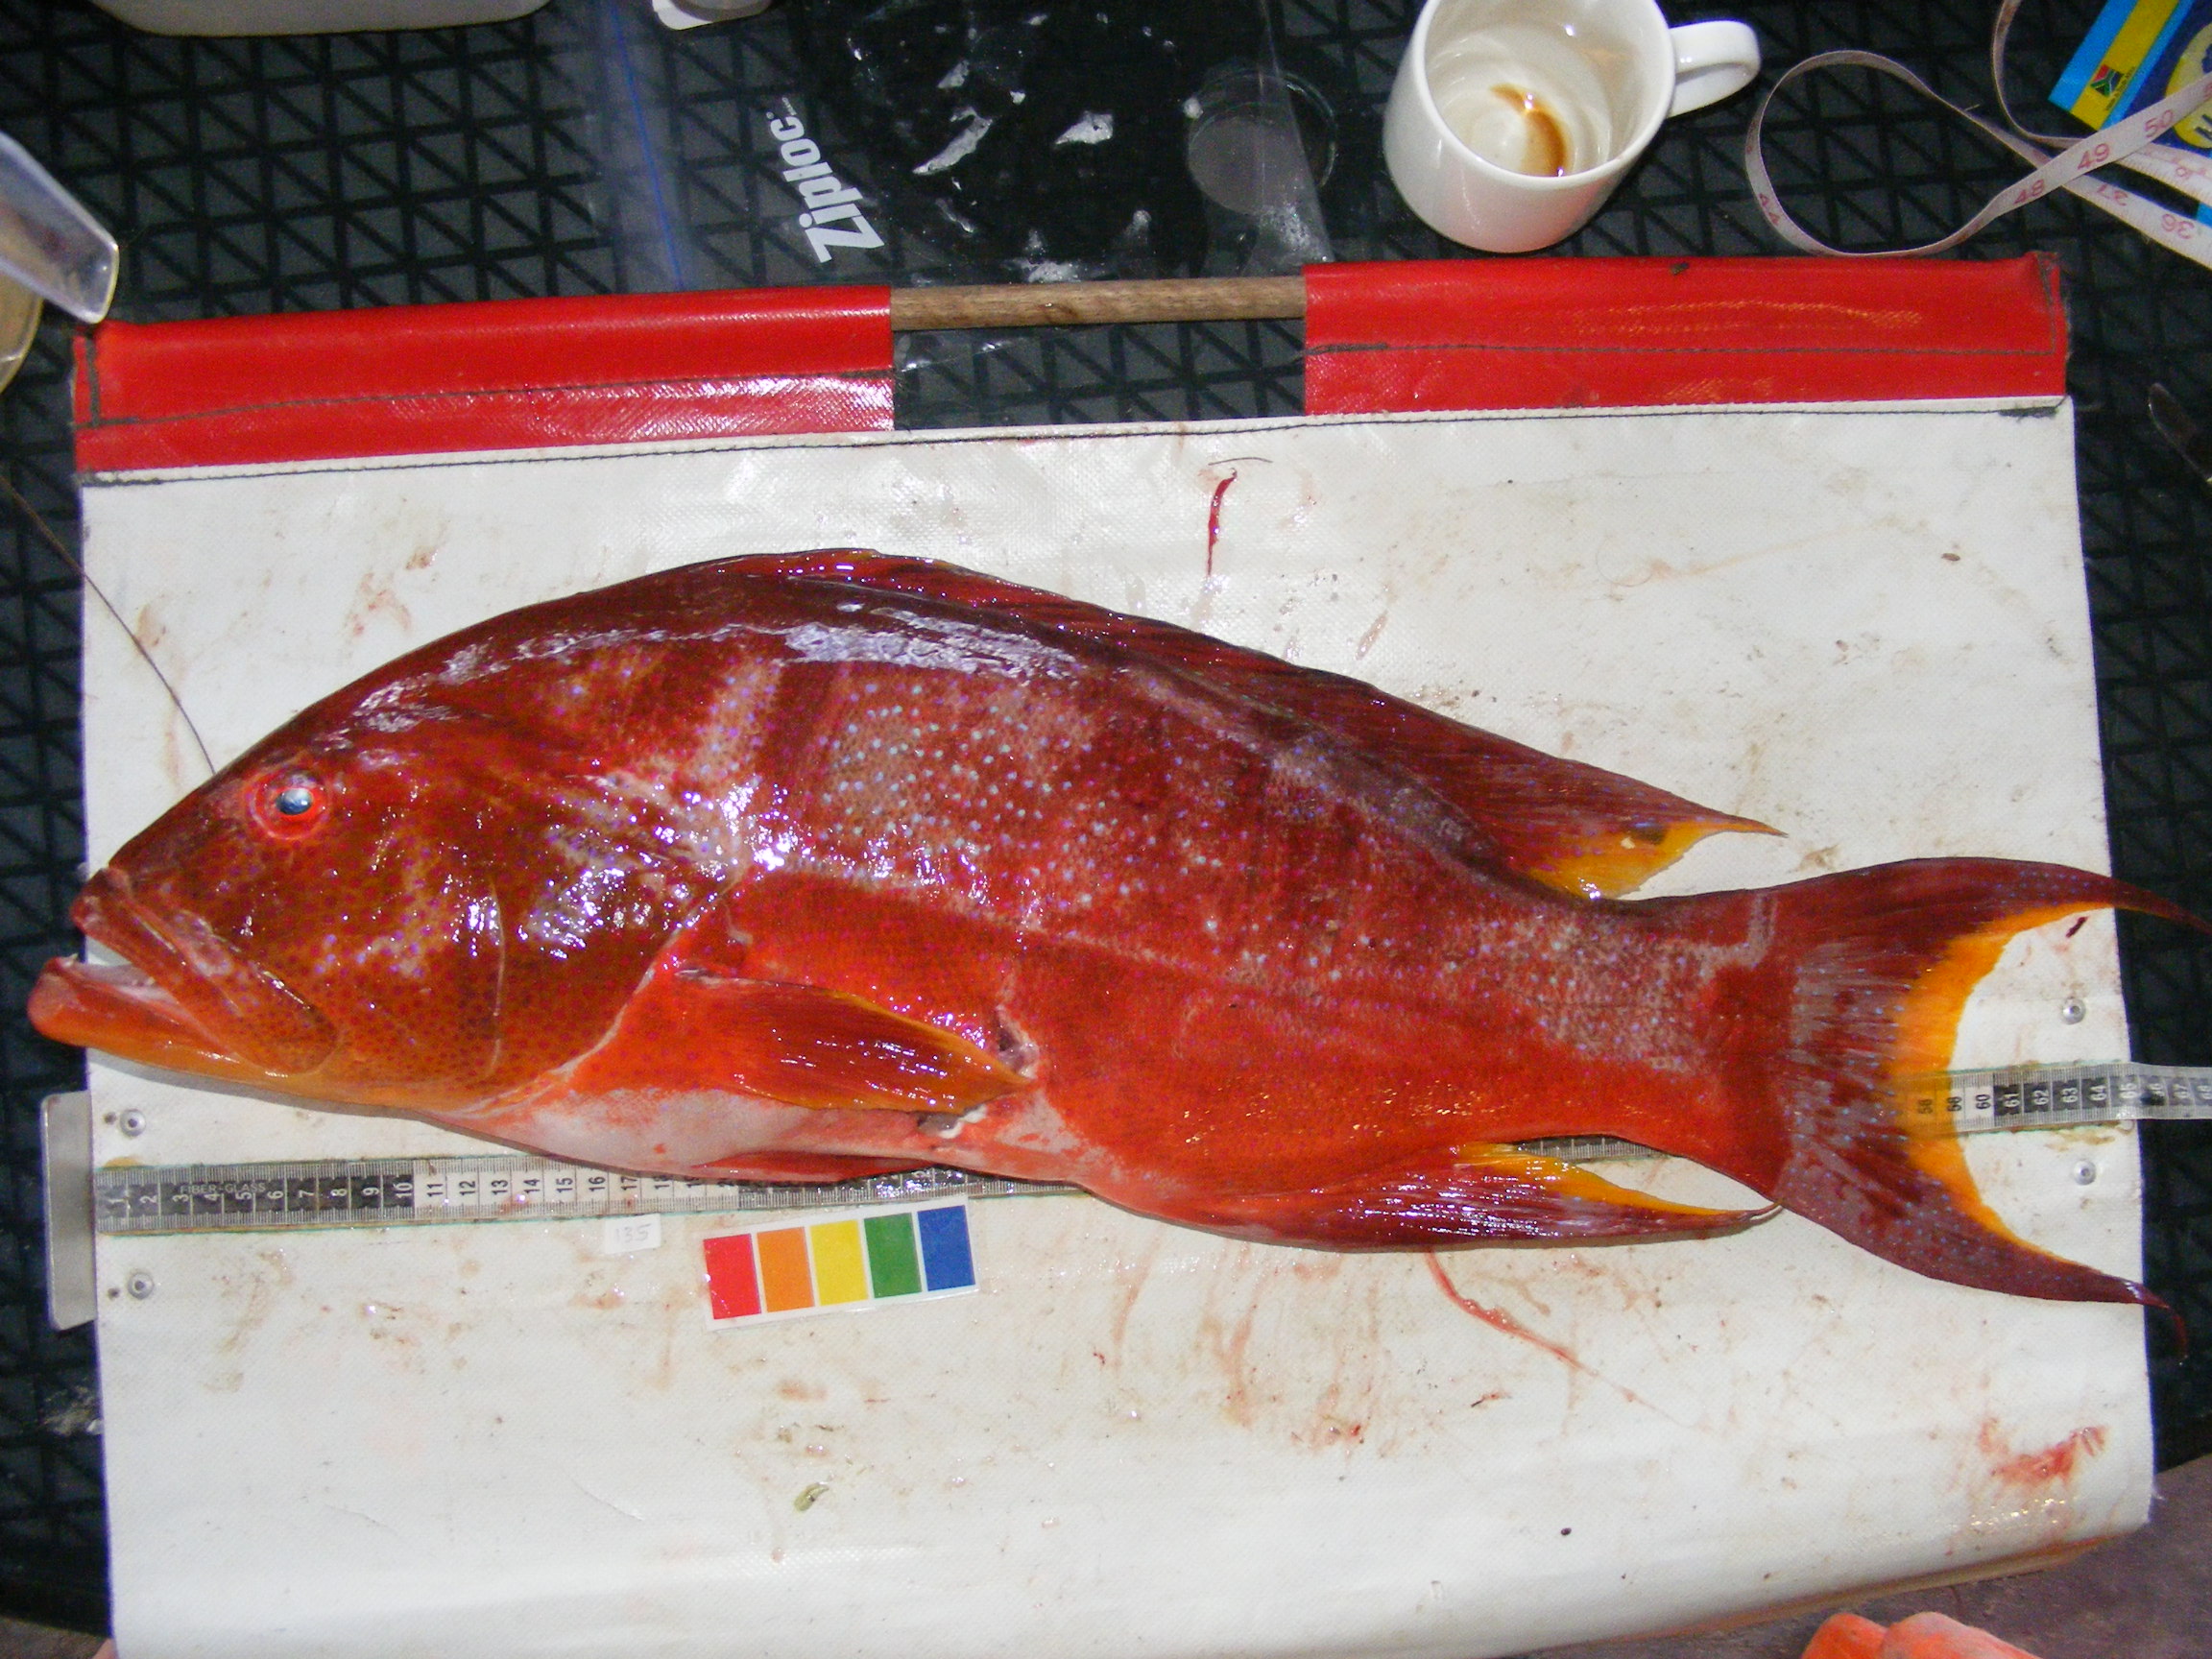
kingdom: Animalia
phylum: Chordata
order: Perciformes
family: Serranidae
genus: Variola
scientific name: Variola louti
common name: Yellow-edged lyretail
